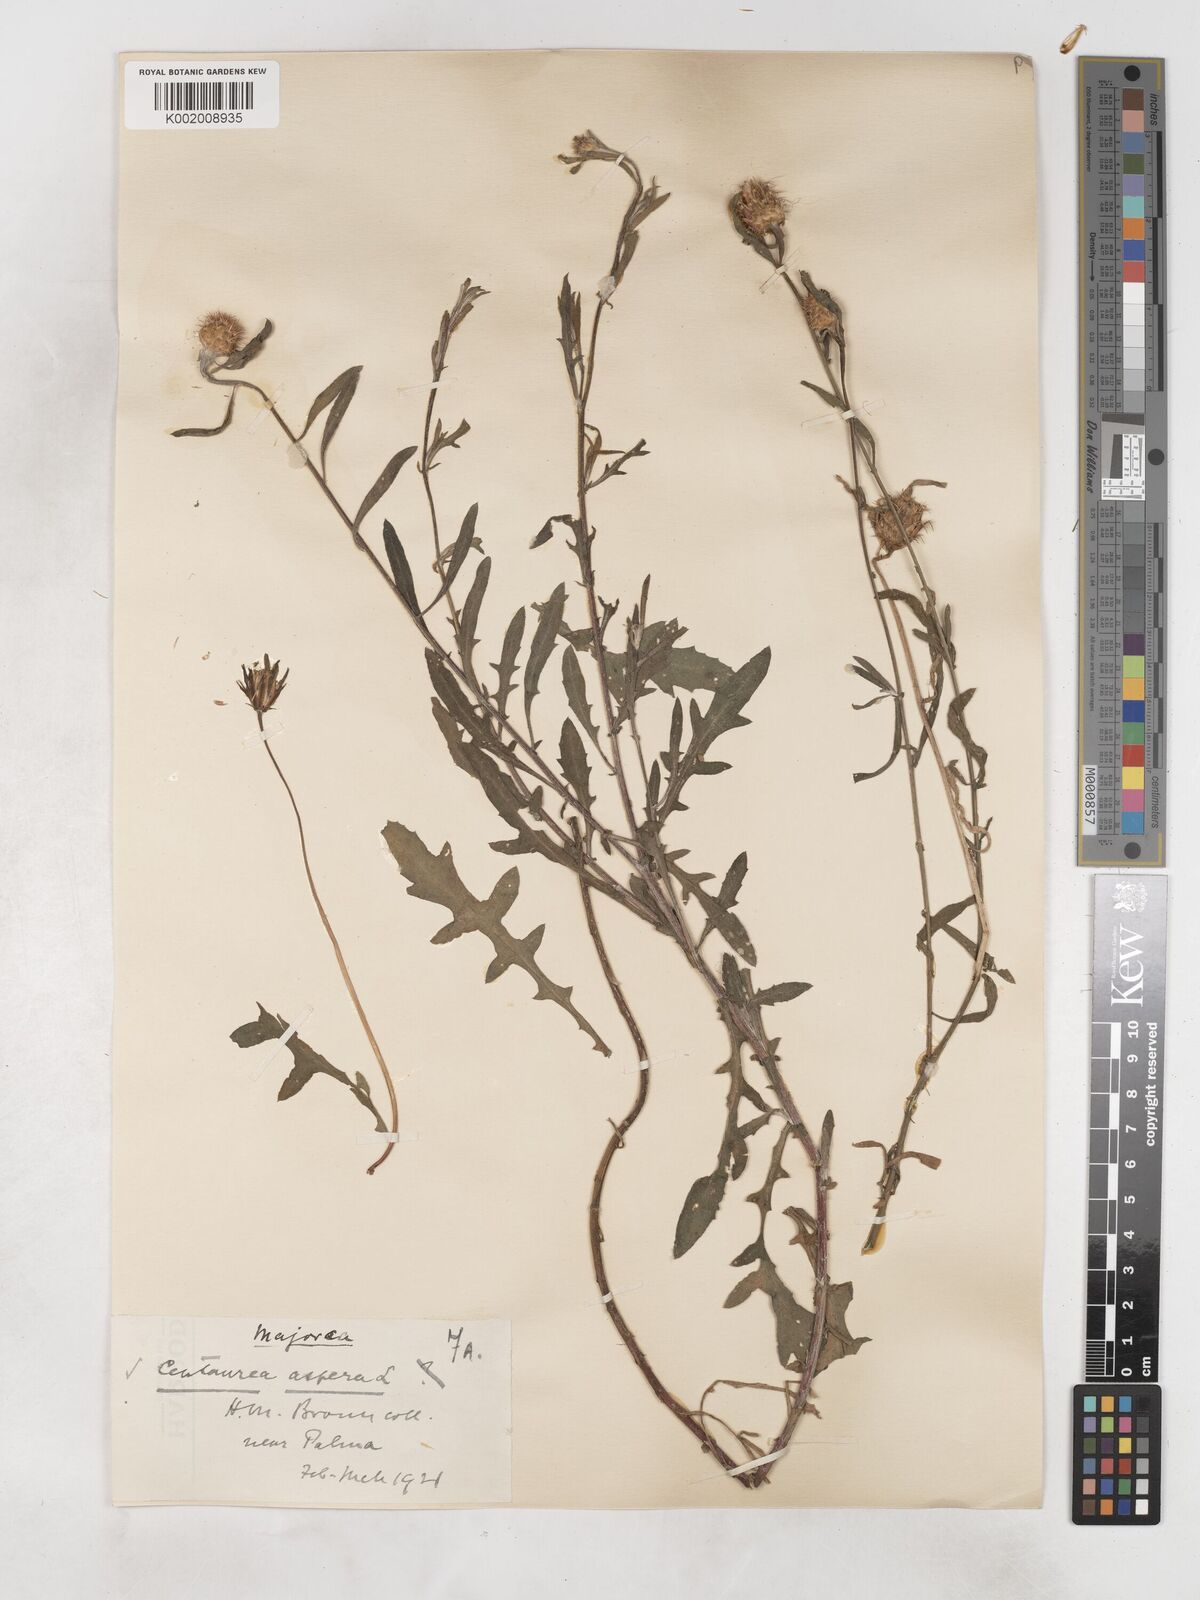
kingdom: Plantae
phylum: Tracheophyta
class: Magnoliopsida
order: Asterales
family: Asteraceae
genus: Centaurea
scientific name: Centaurea aspera
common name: Rough star-thistle
